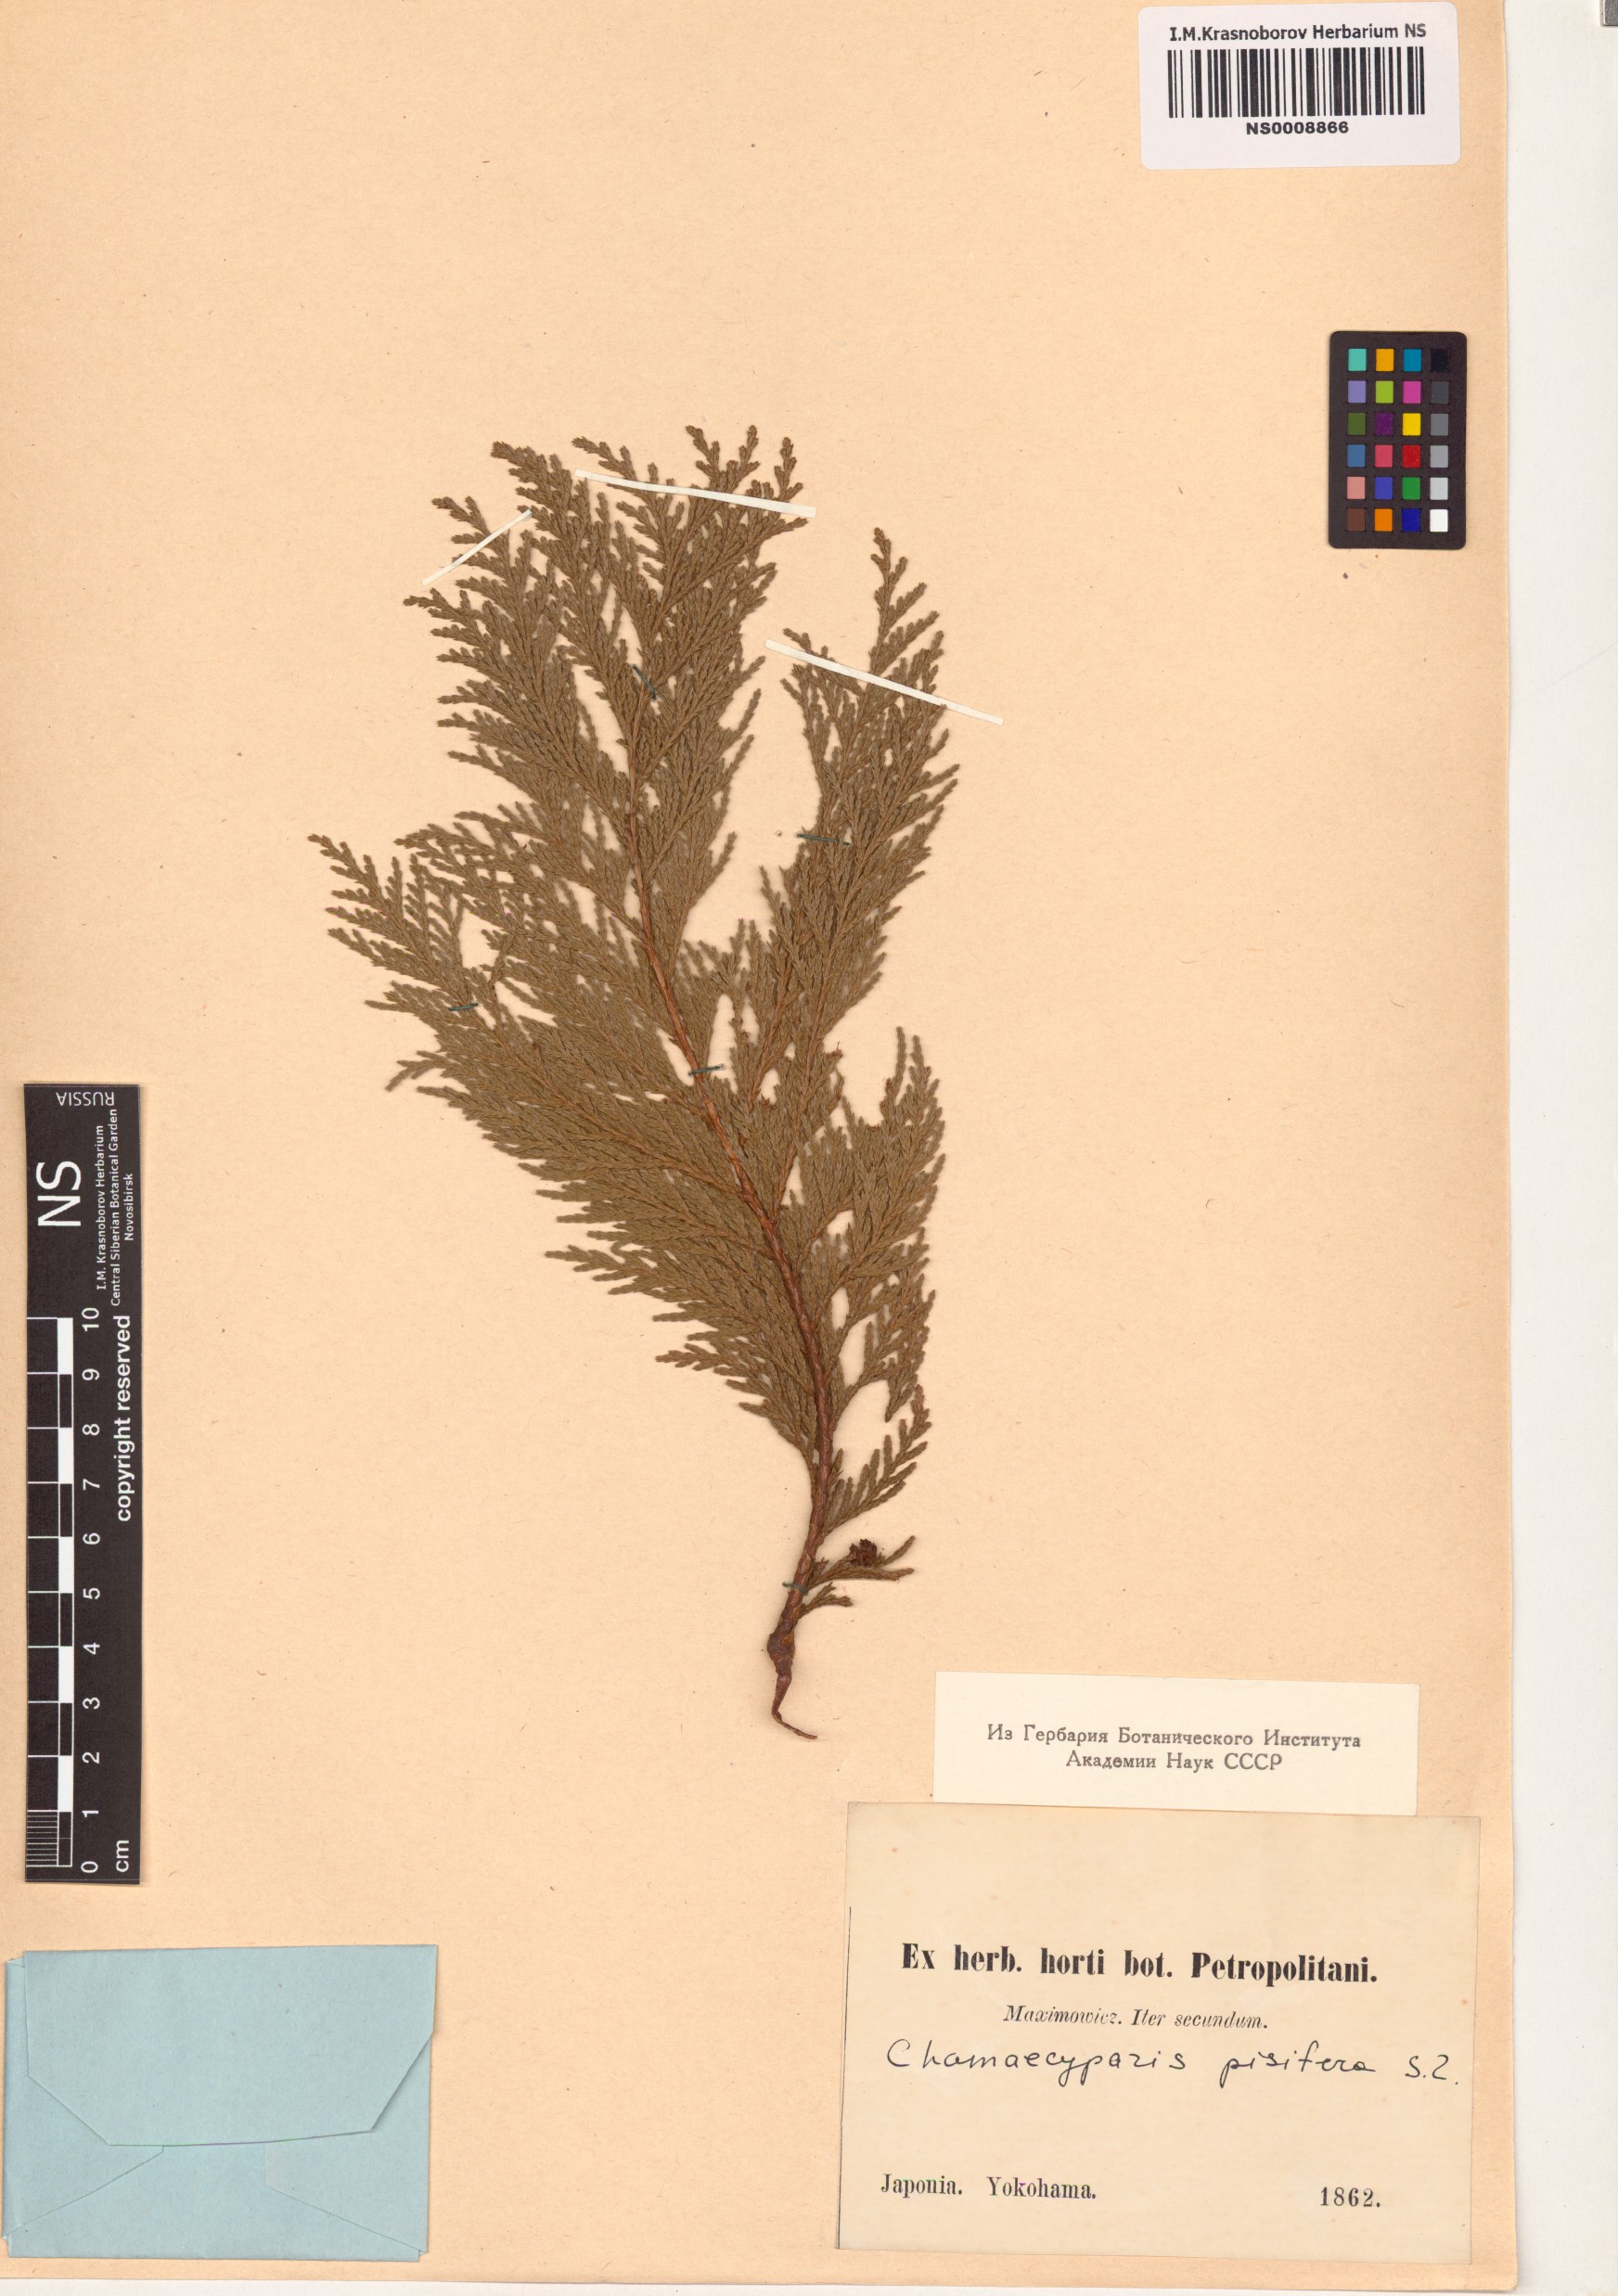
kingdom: Plantae
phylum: Tracheophyta
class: Pinopsida
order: Pinales
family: Cupressaceae
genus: Chamaecyparis
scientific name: Chamaecyparis pisifera
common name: Sawara cypress
